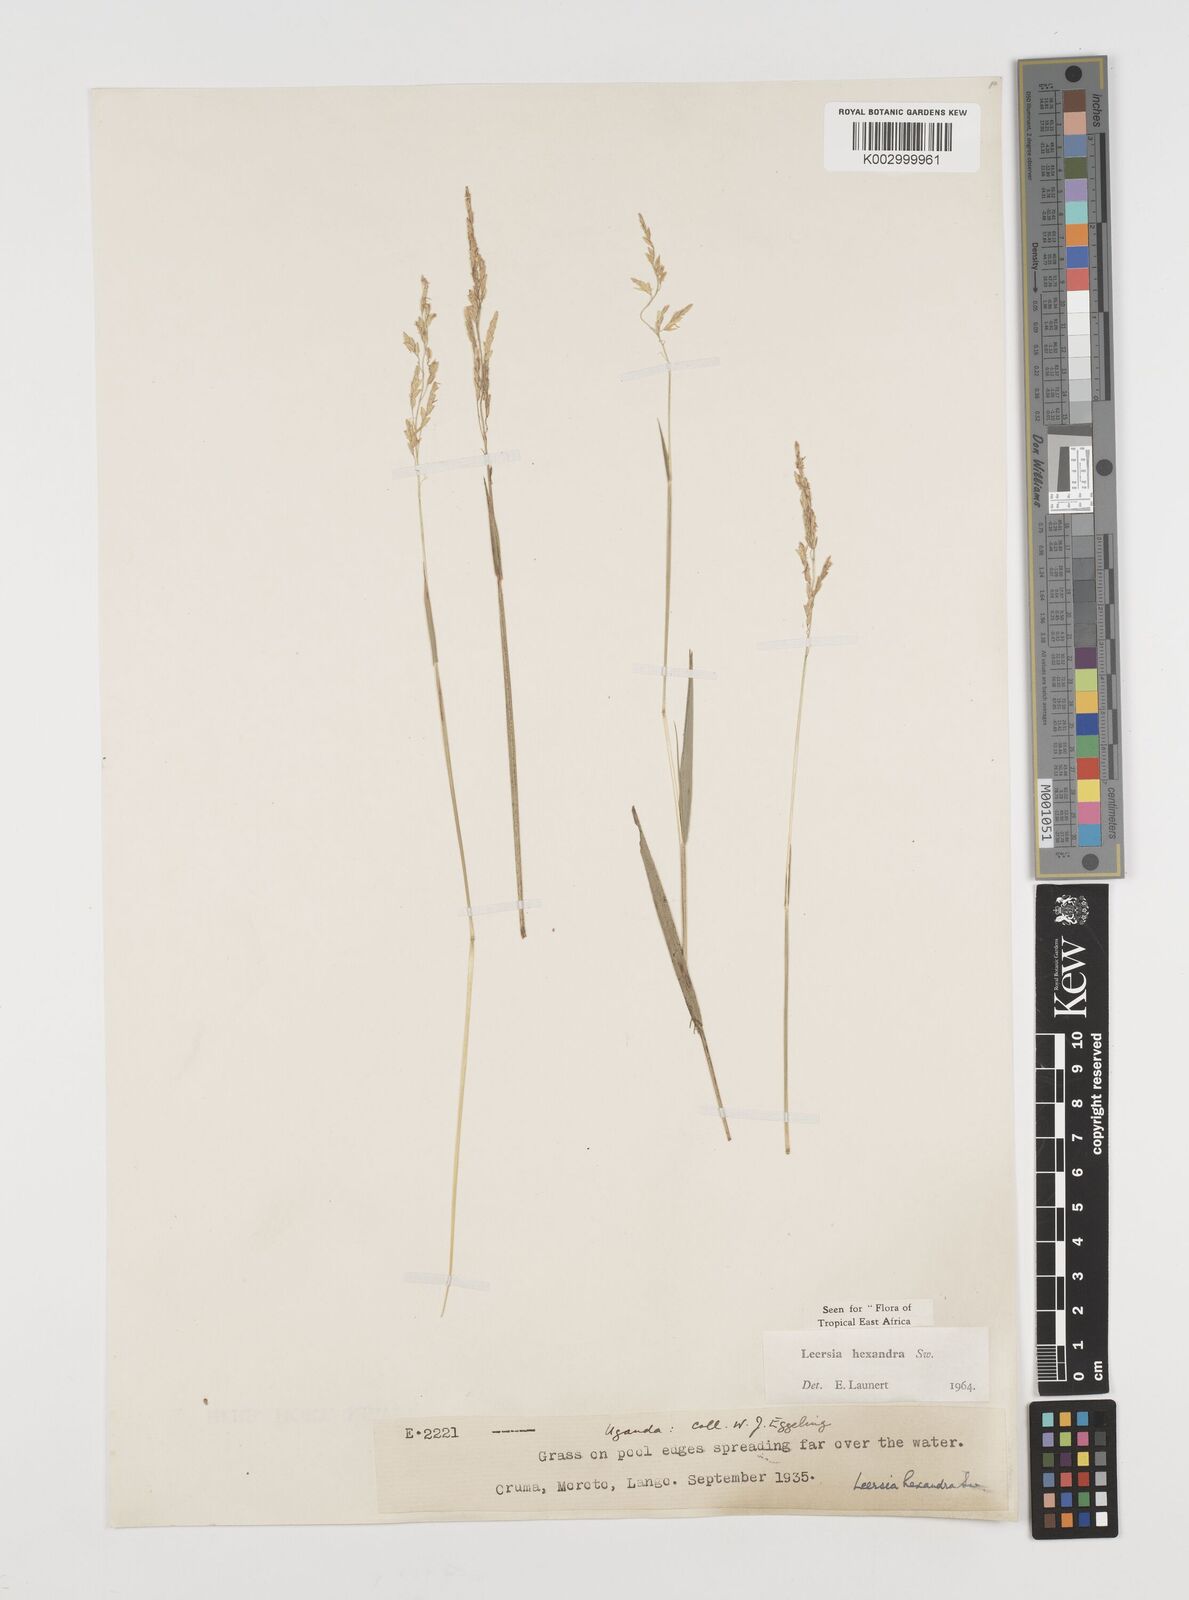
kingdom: Plantae
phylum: Tracheophyta
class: Liliopsida
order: Poales
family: Poaceae
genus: Leersia
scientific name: Leersia hexandra
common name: Southern cut grass
